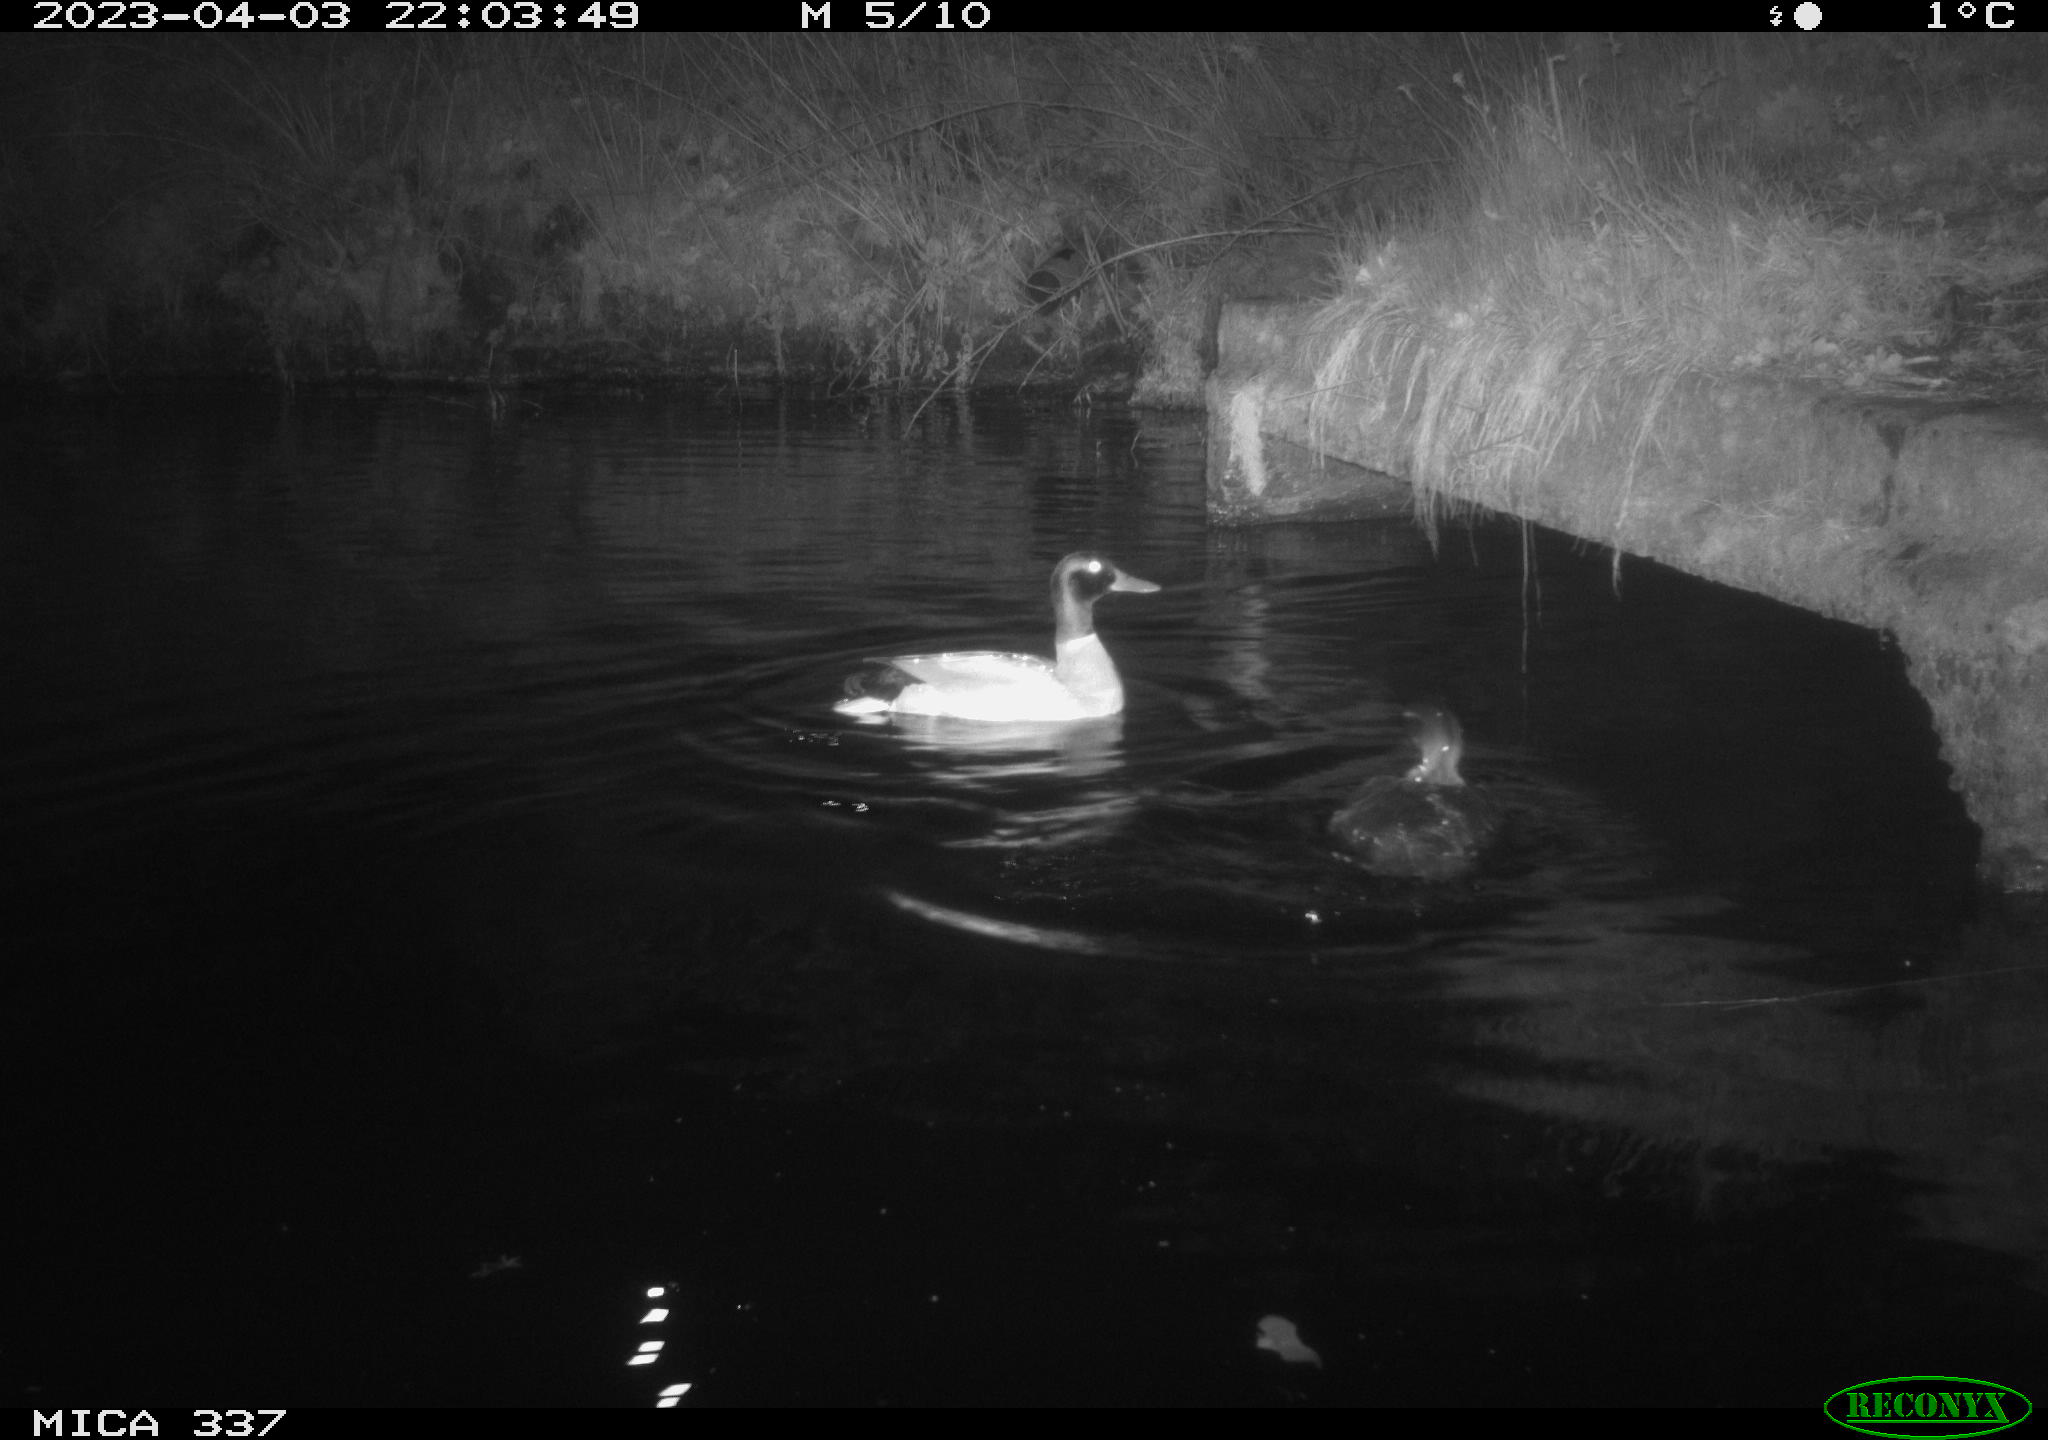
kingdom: Animalia
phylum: Chordata
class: Aves
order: Anseriformes
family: Anatidae
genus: Anas
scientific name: Anas platyrhynchos
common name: Mallard
